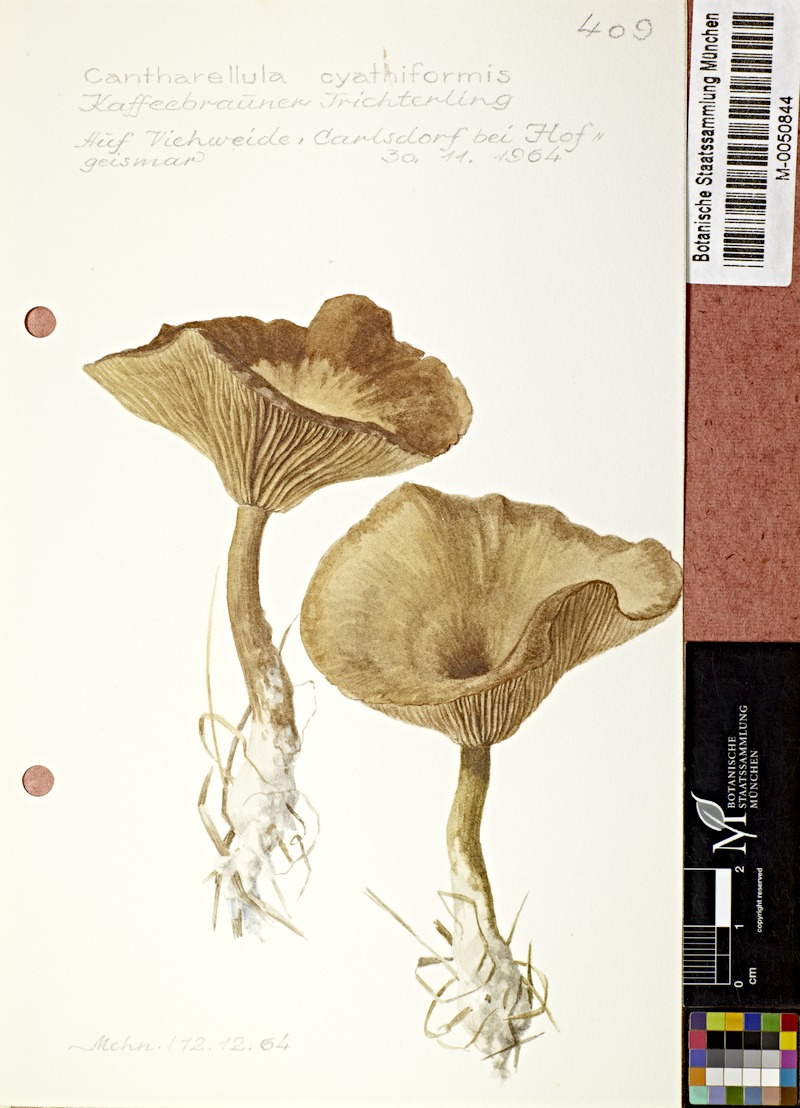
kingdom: Fungi
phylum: Basidiomycota
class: Agaricomycetes
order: Agaricales
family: Pseudoclitocybaceae
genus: Pseudoclitocybe
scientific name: Pseudoclitocybe cyathiformis
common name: Goblet
